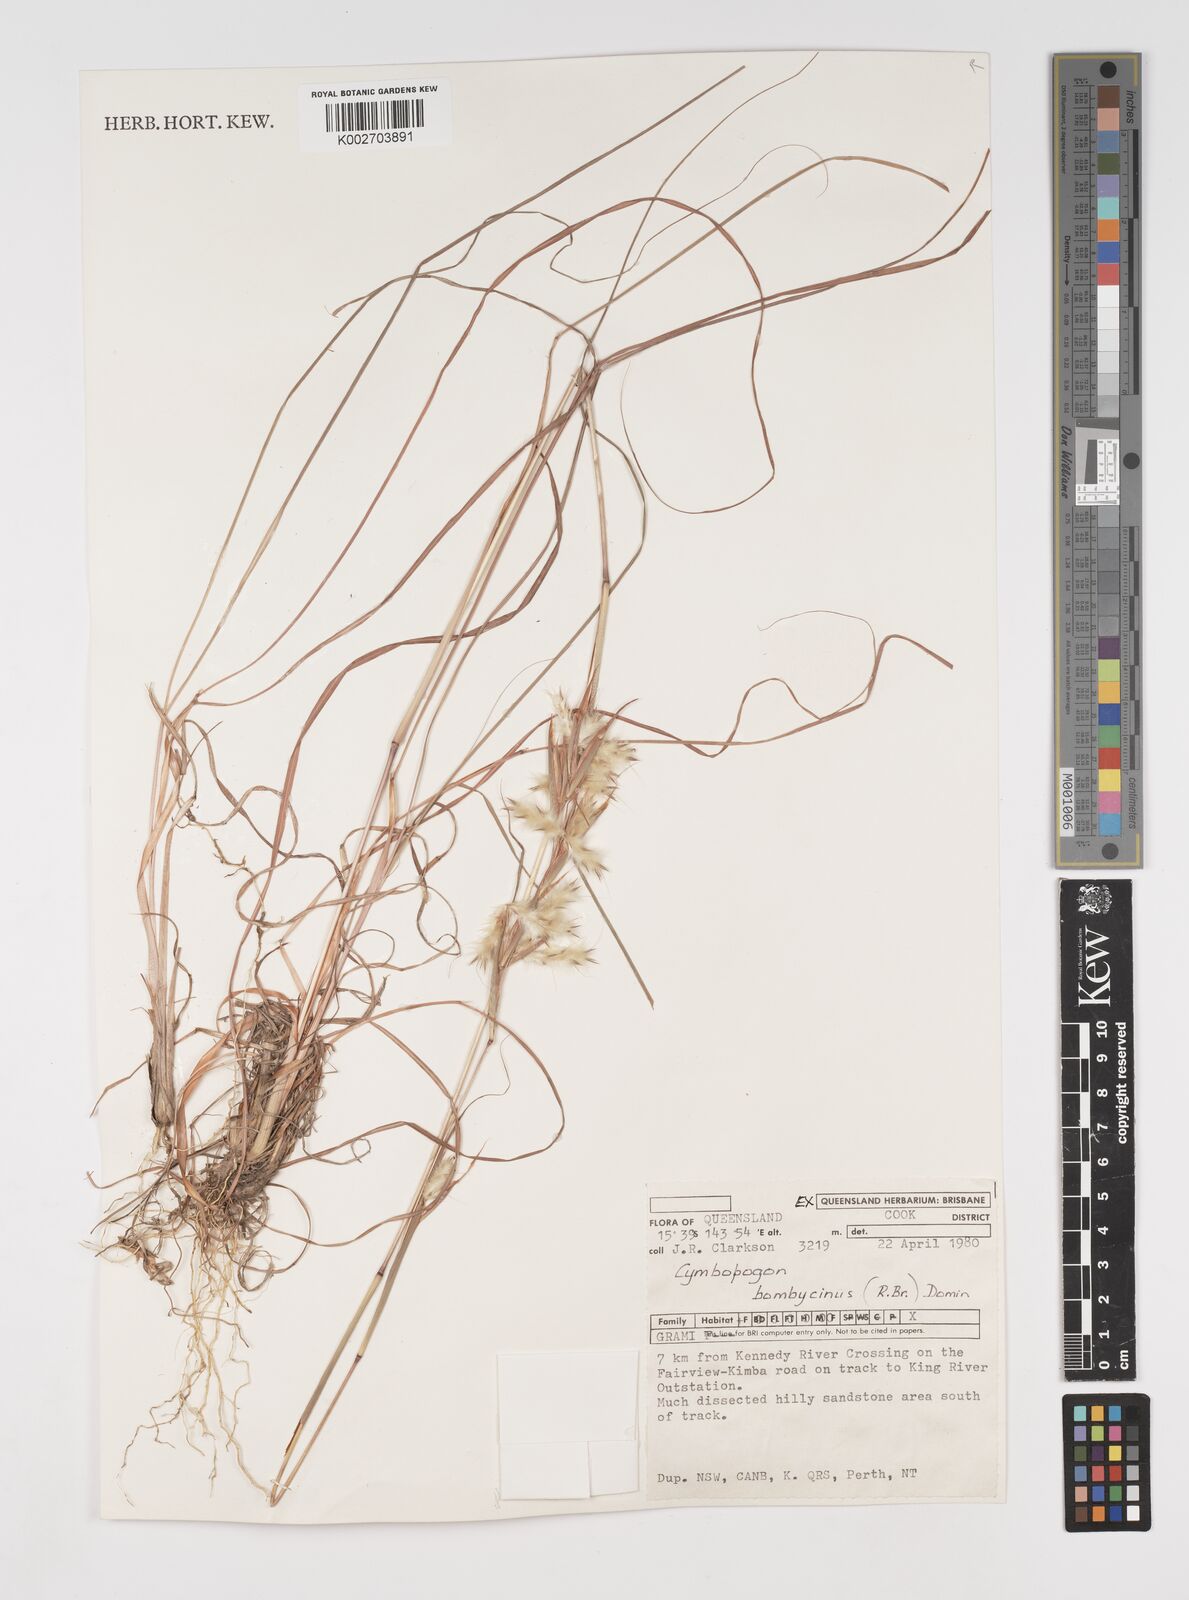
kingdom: Plantae
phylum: Tracheophyta
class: Liliopsida
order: Poales
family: Poaceae
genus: Cymbopogon
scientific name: Cymbopogon bombycinus
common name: Citronella grass
